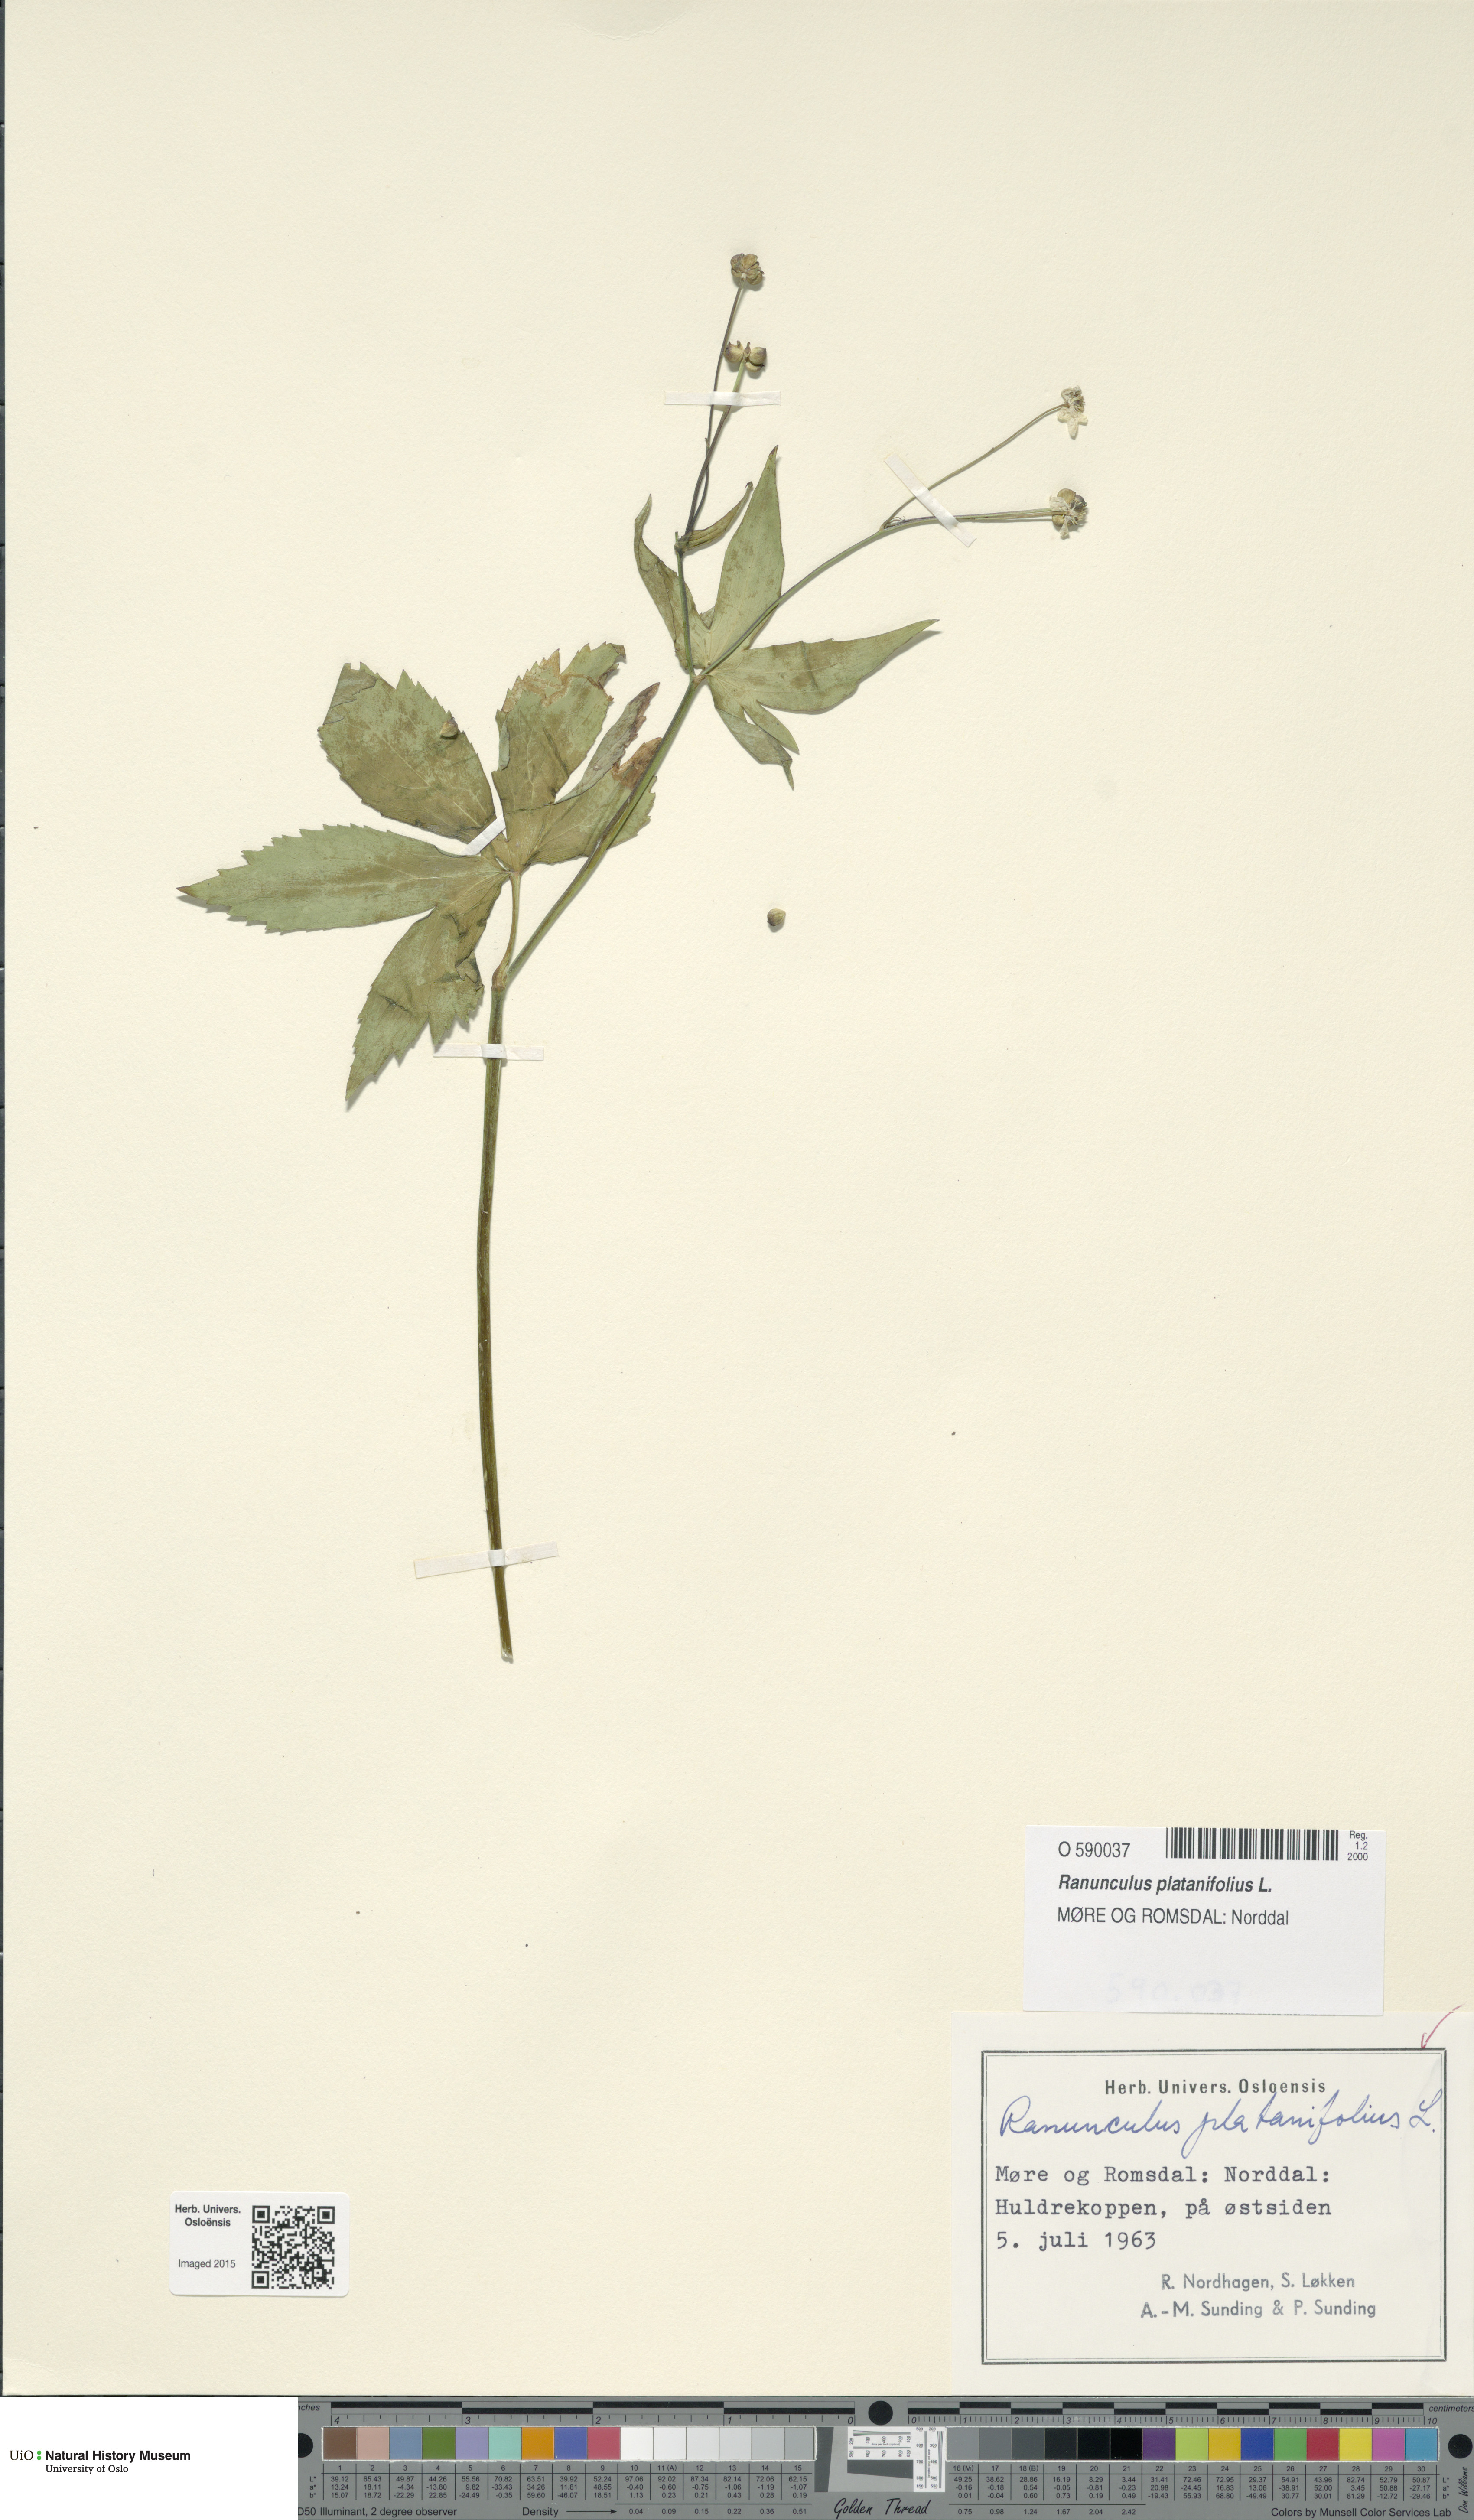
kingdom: Plantae
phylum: Tracheophyta
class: Magnoliopsida
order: Ranunculales
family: Ranunculaceae
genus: Ranunculus
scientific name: Ranunculus platanifolius
